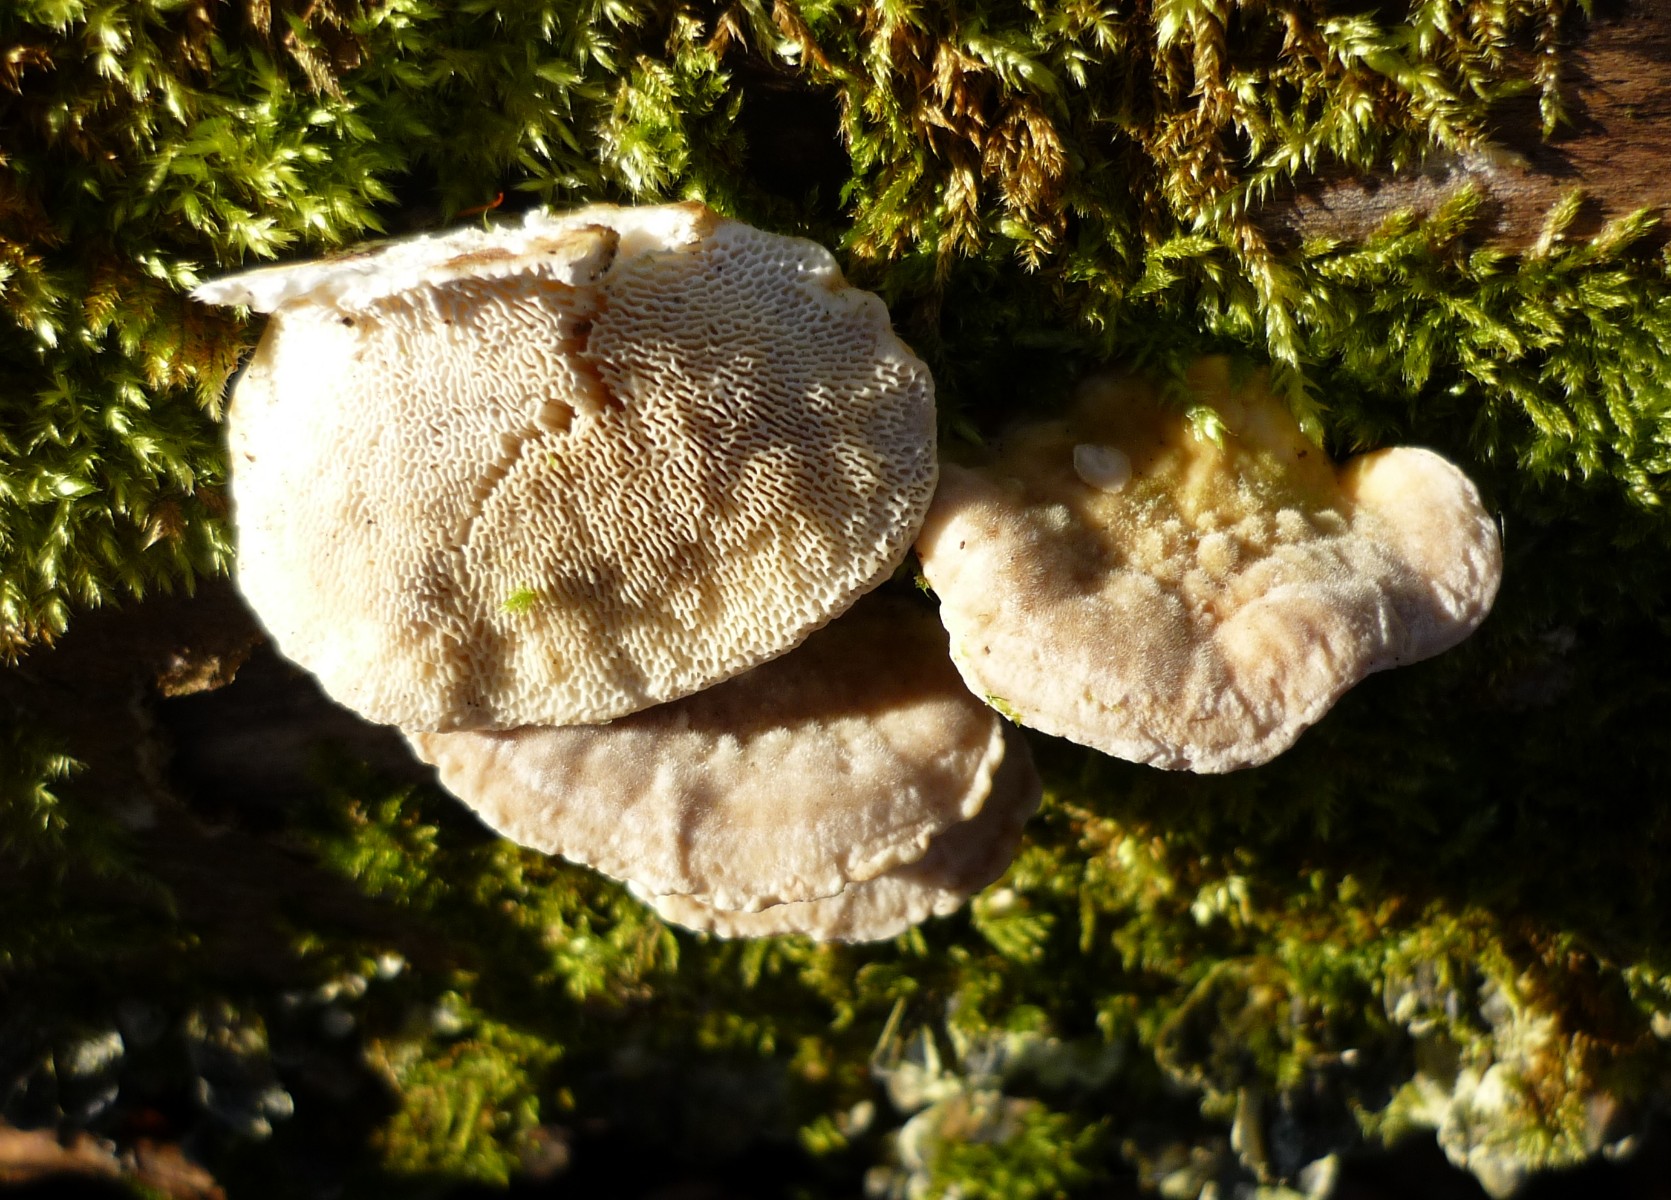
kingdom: Fungi
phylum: Basidiomycota
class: Agaricomycetes
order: Polyporales
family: Polyporaceae
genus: Trametes
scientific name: Trametes gibbosa
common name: puklet læderporesvamp
